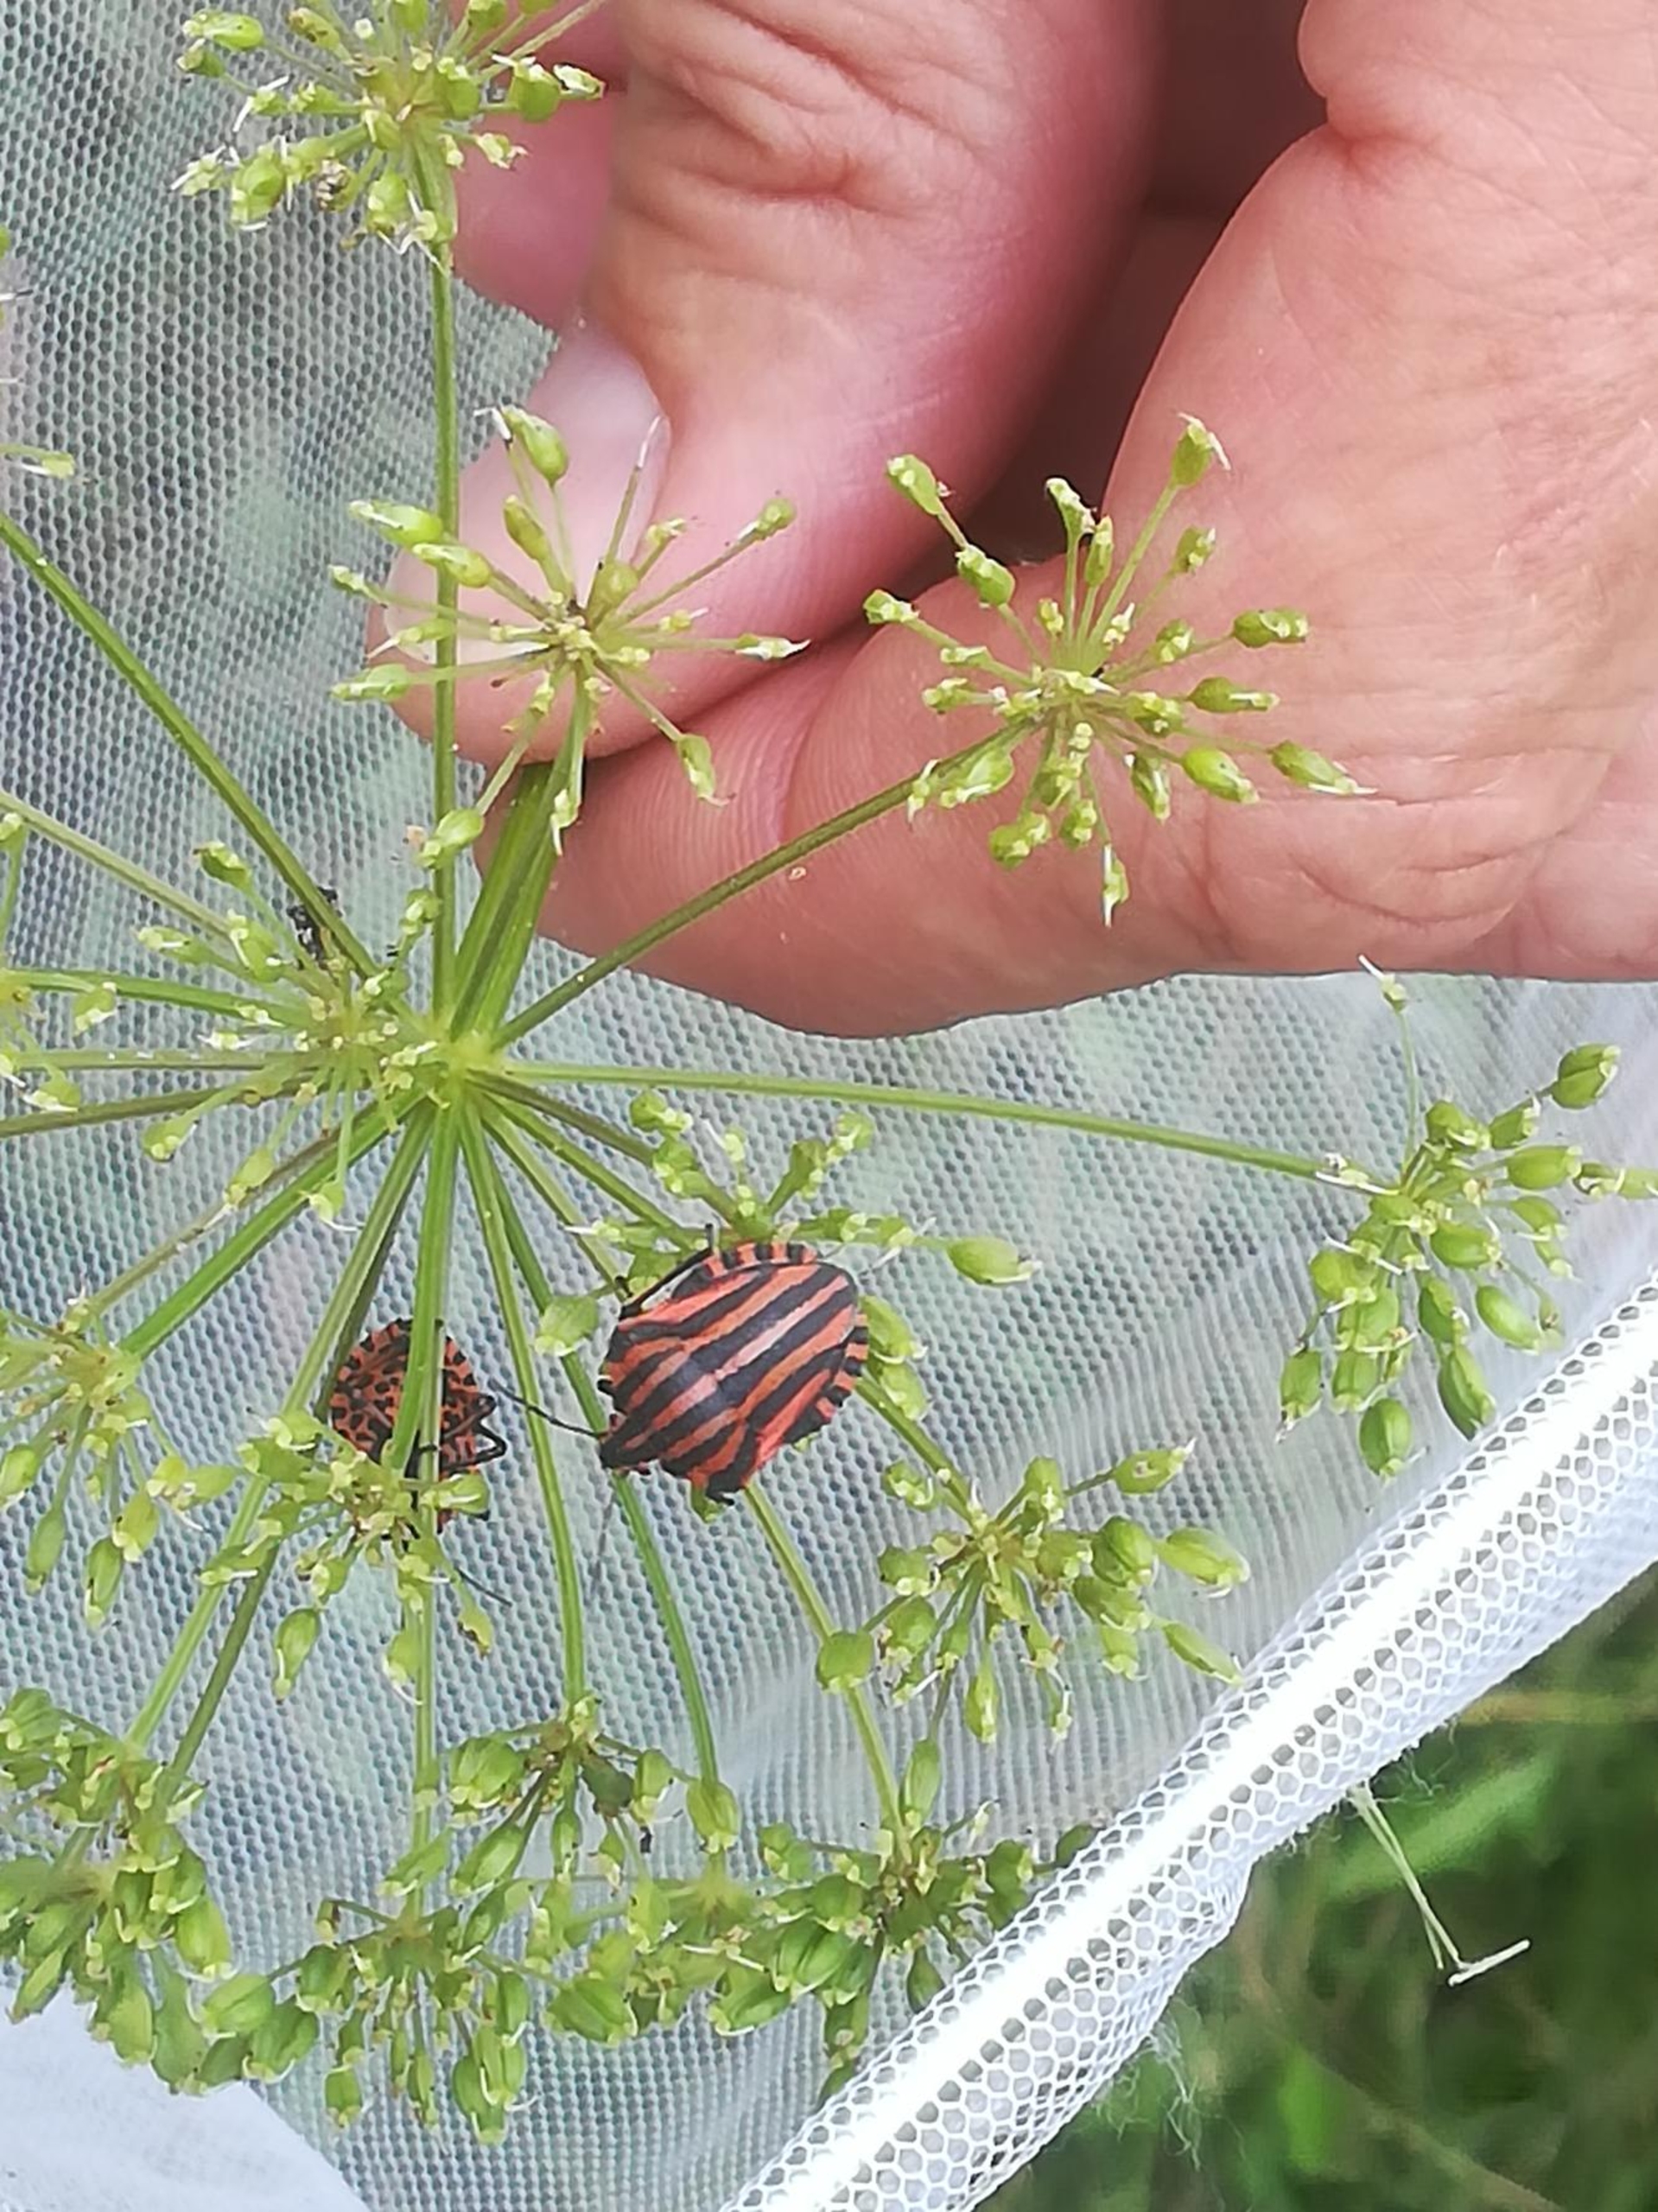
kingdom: Animalia
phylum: Arthropoda
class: Insecta
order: Hemiptera
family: Pentatomidae
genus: Graphosoma
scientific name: Graphosoma italicum
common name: Stribetæge
